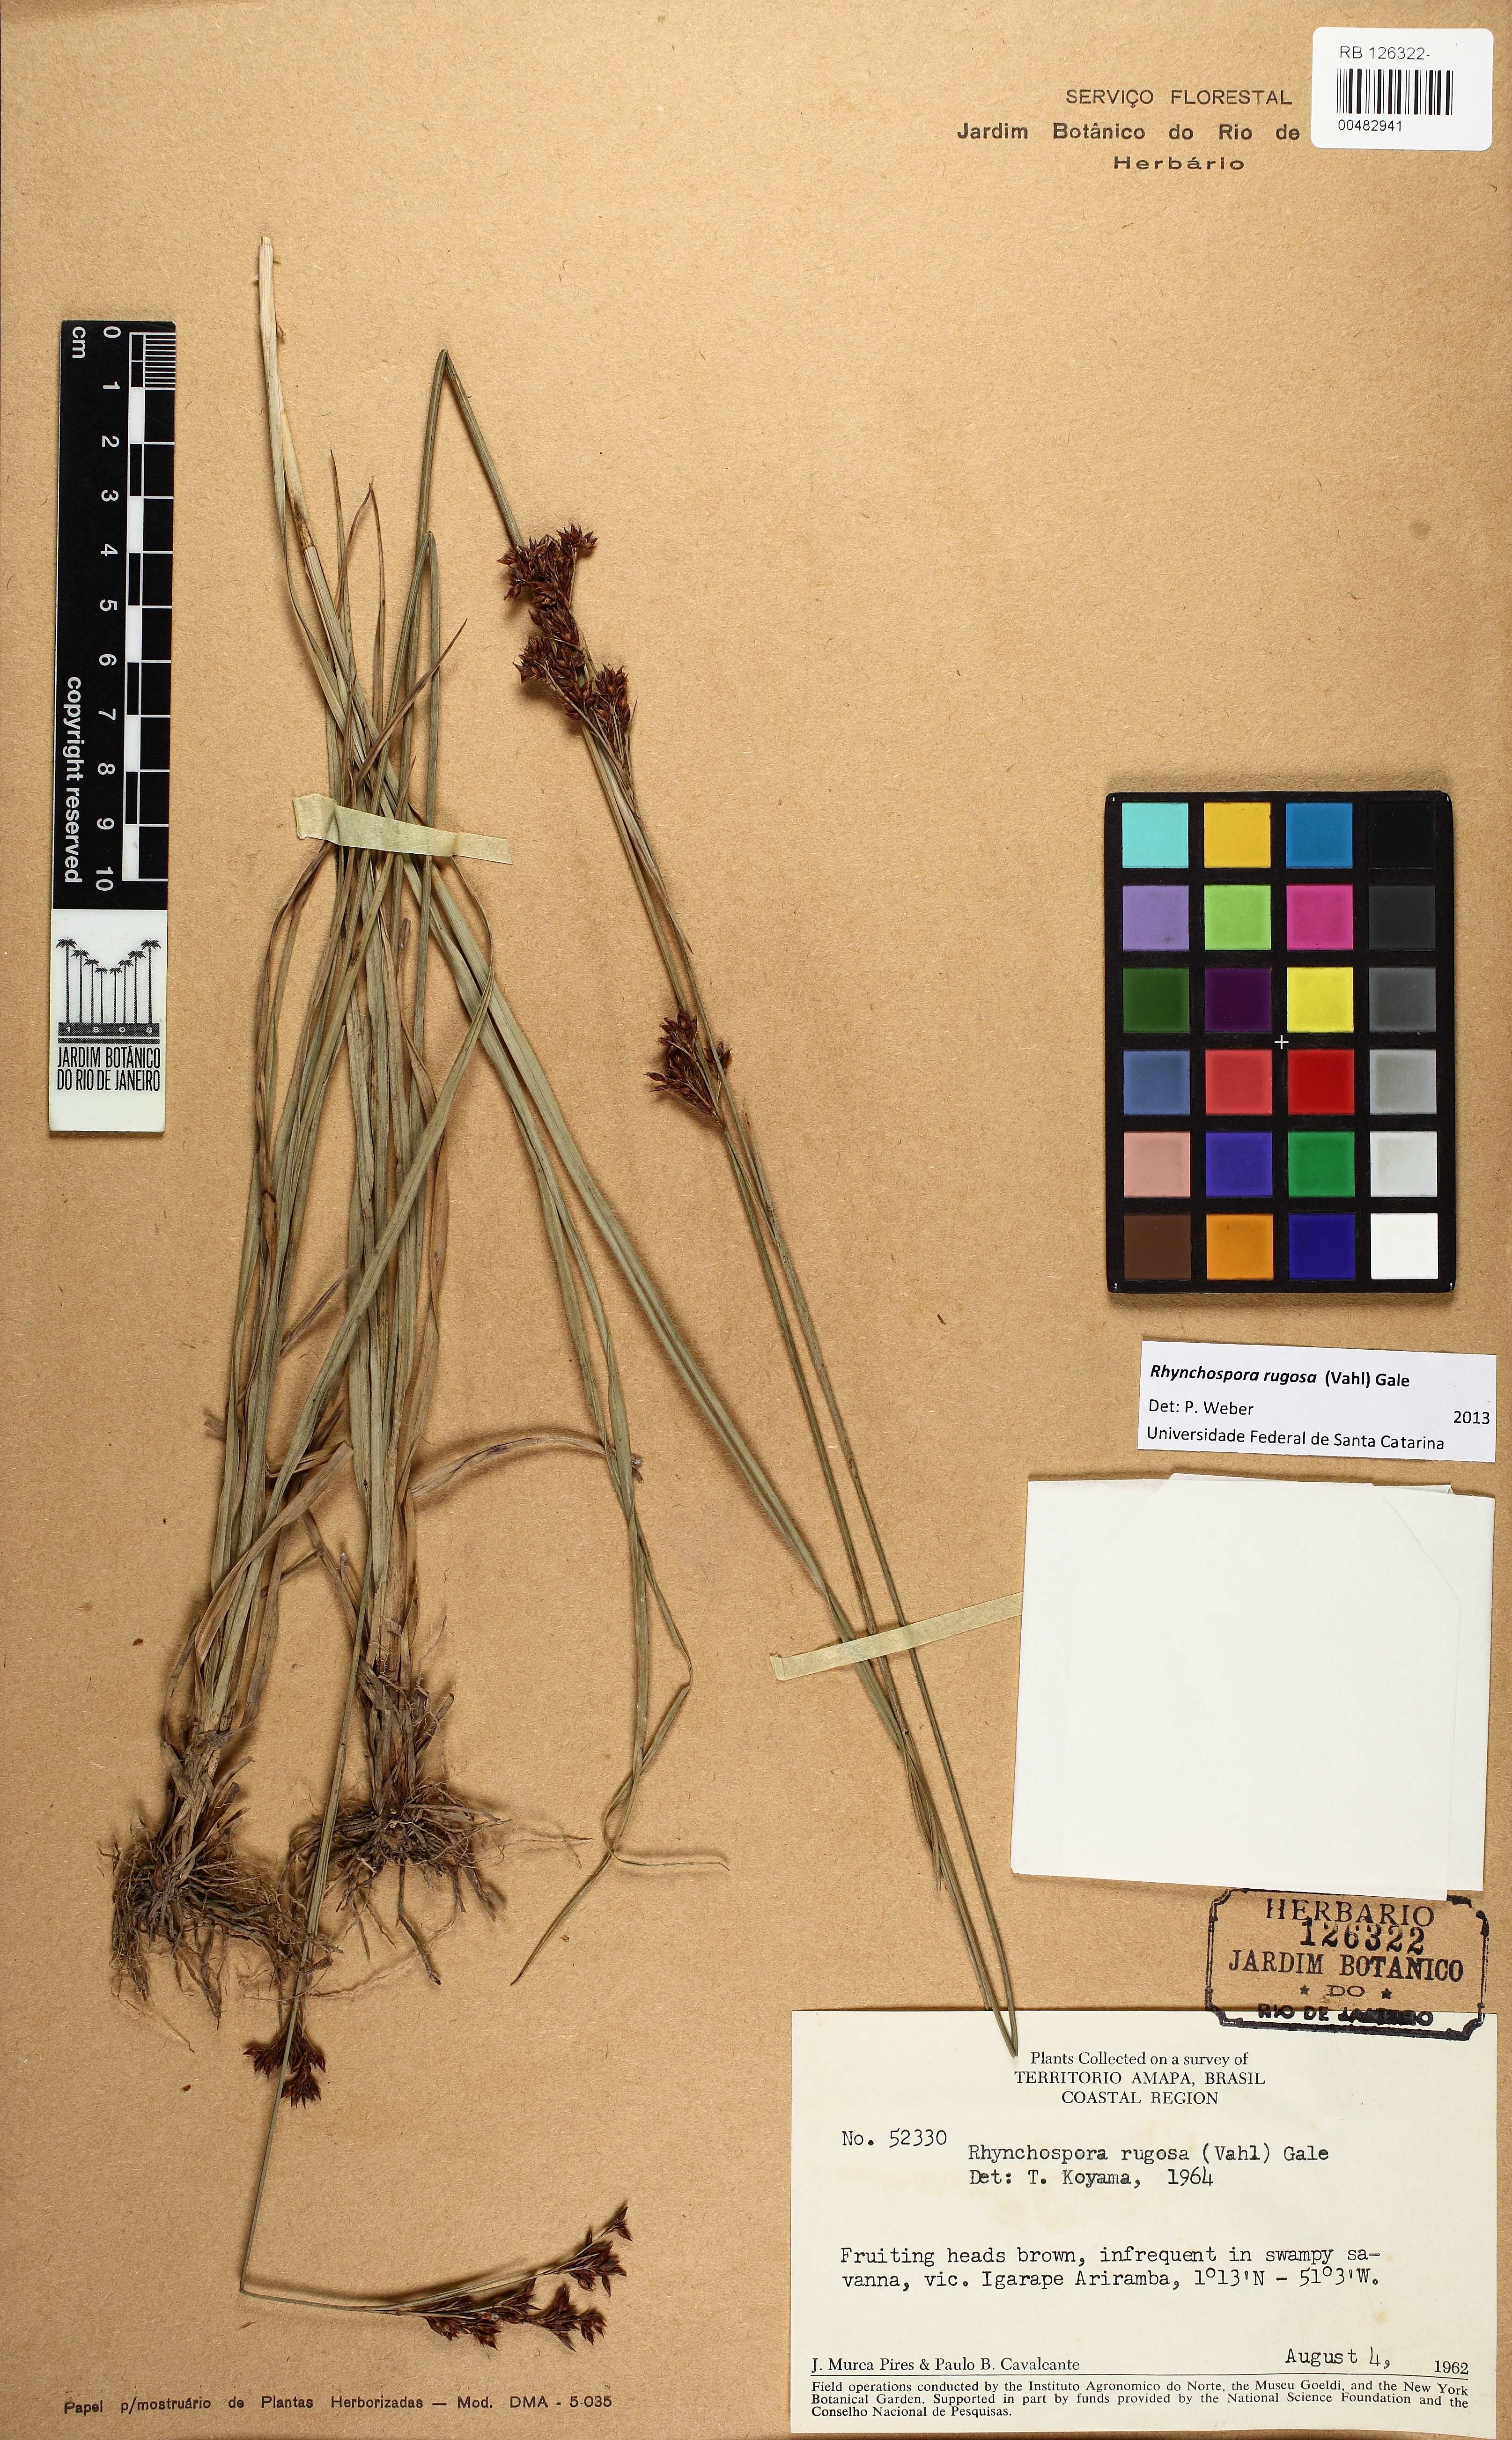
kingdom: Plantae
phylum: Tracheophyta
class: Liliopsida
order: Poales
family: Cyperaceae
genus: Rhynchospora
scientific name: Rhynchospora rugosa
